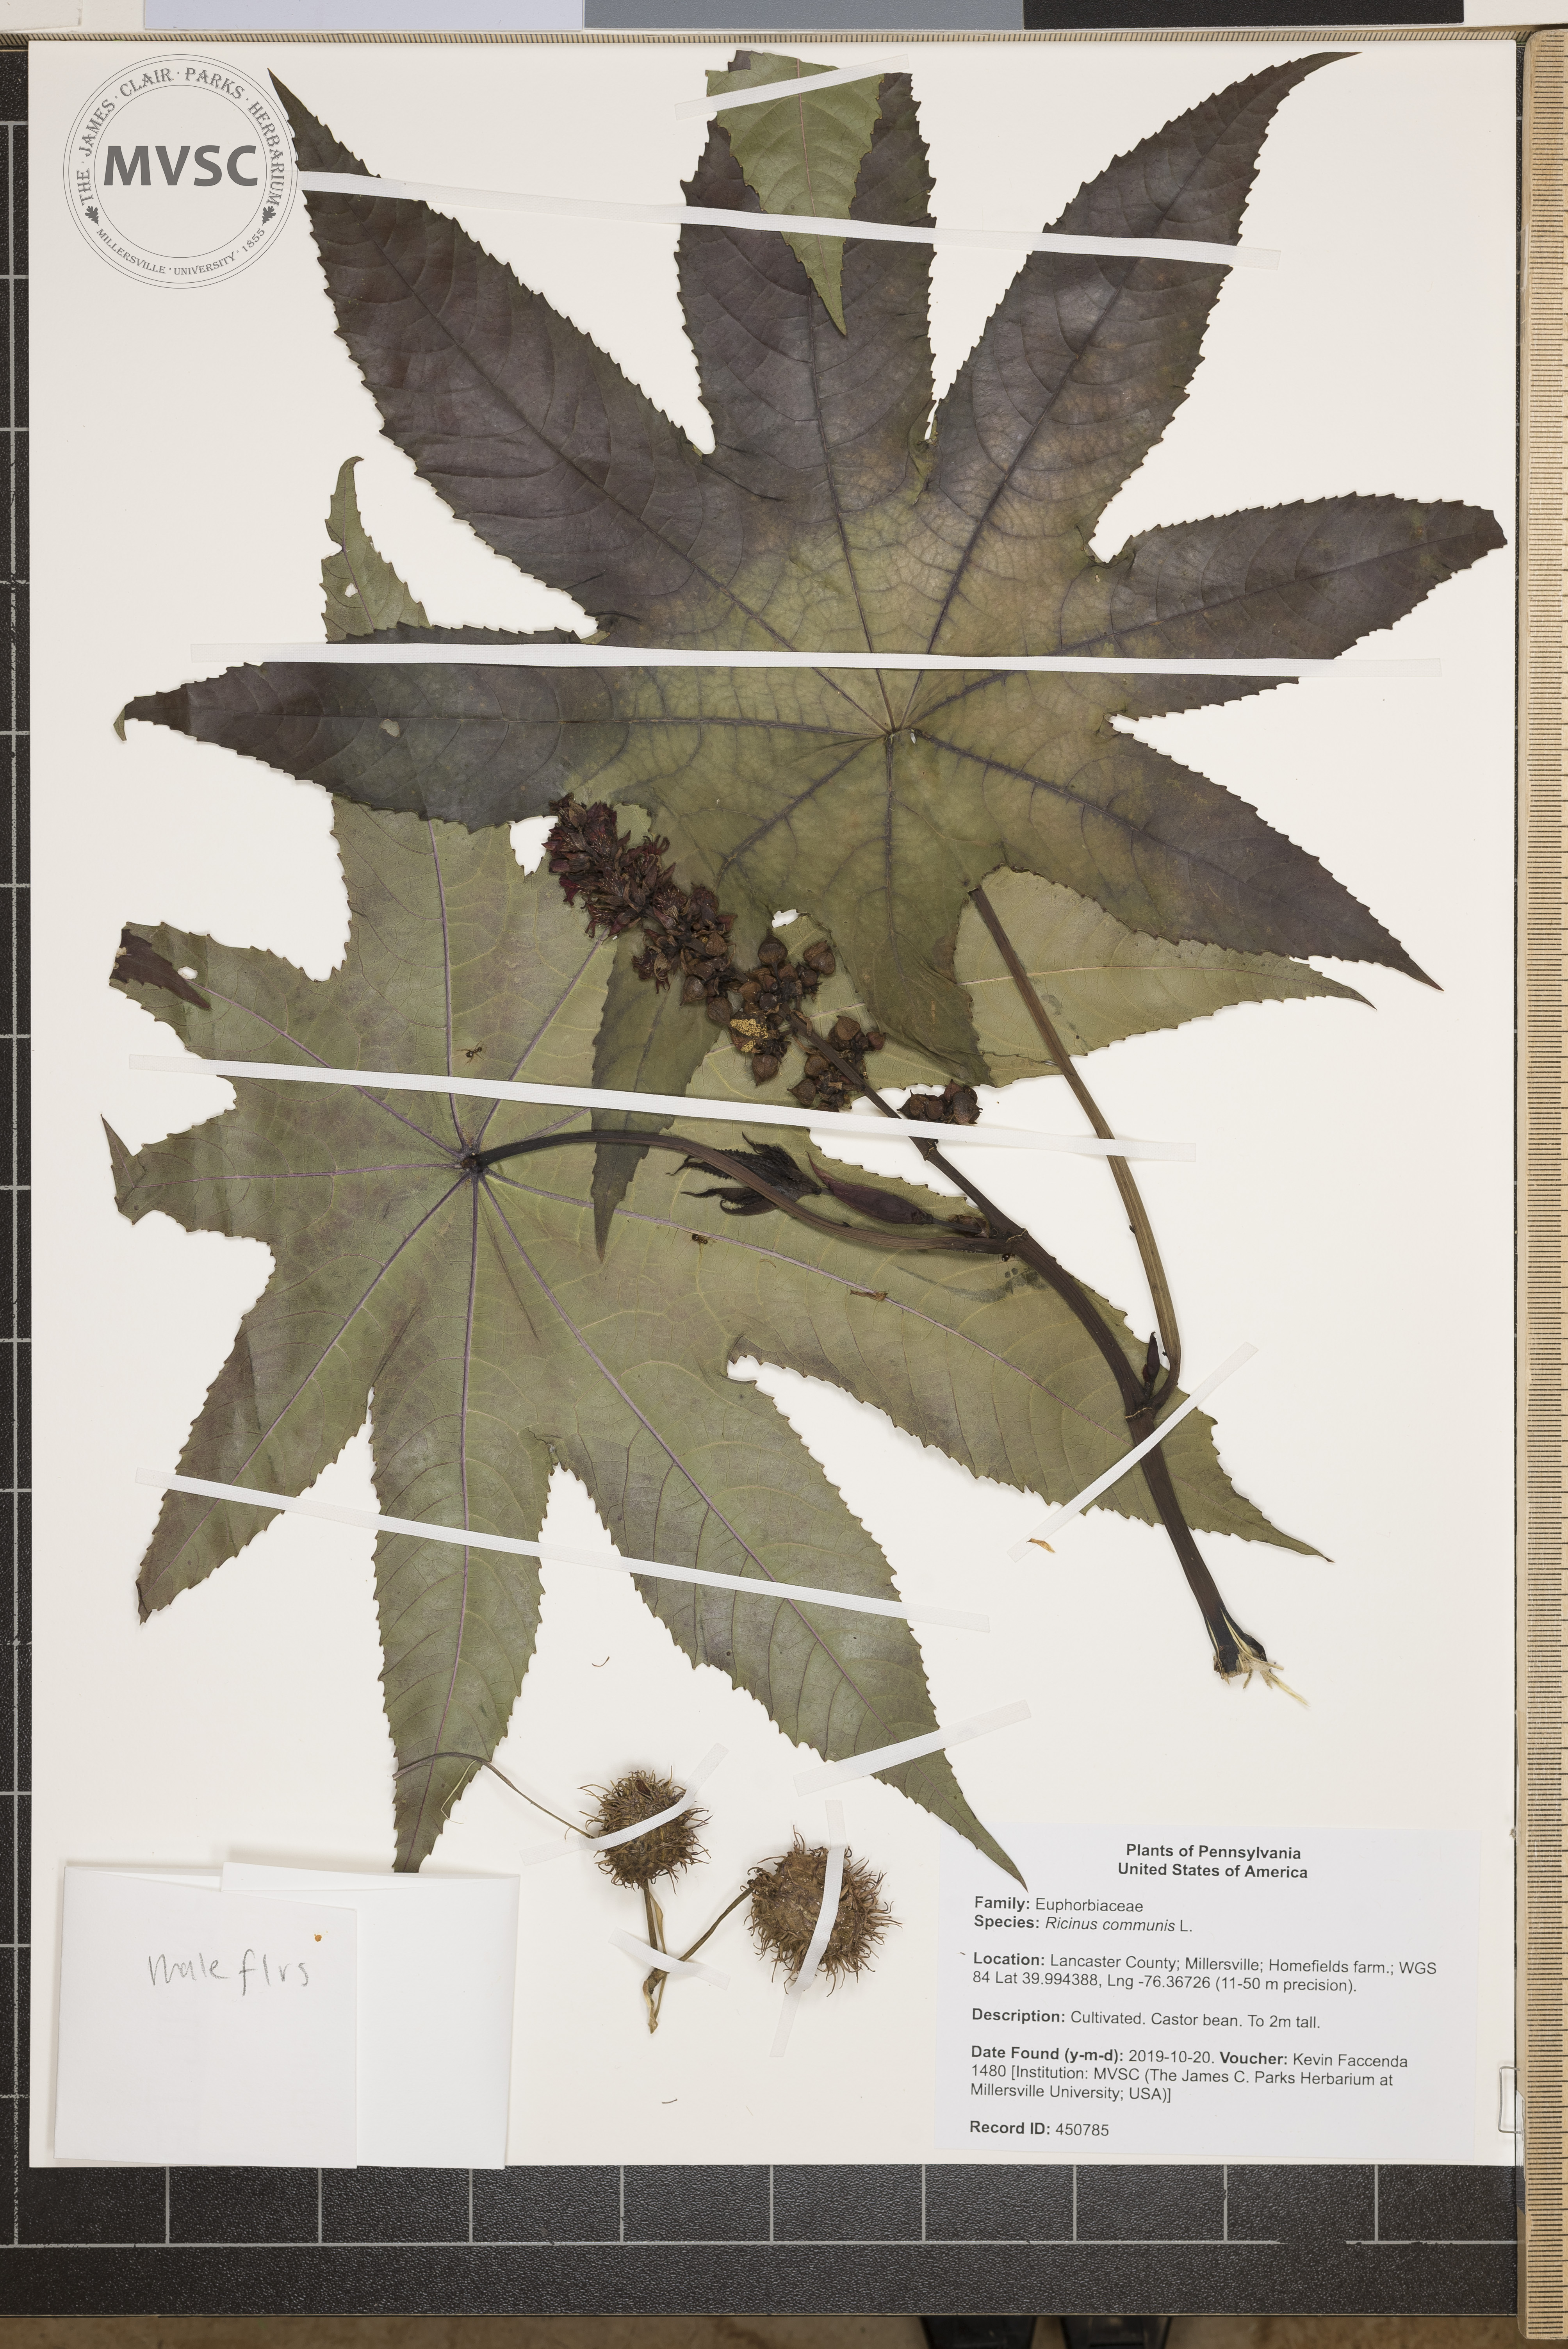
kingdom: Plantae
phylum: Tracheophyta
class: Magnoliopsida
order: Malpighiales
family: Euphorbiaceae
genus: Ricinus
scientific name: Ricinus communis
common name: Castor-oil-plant
